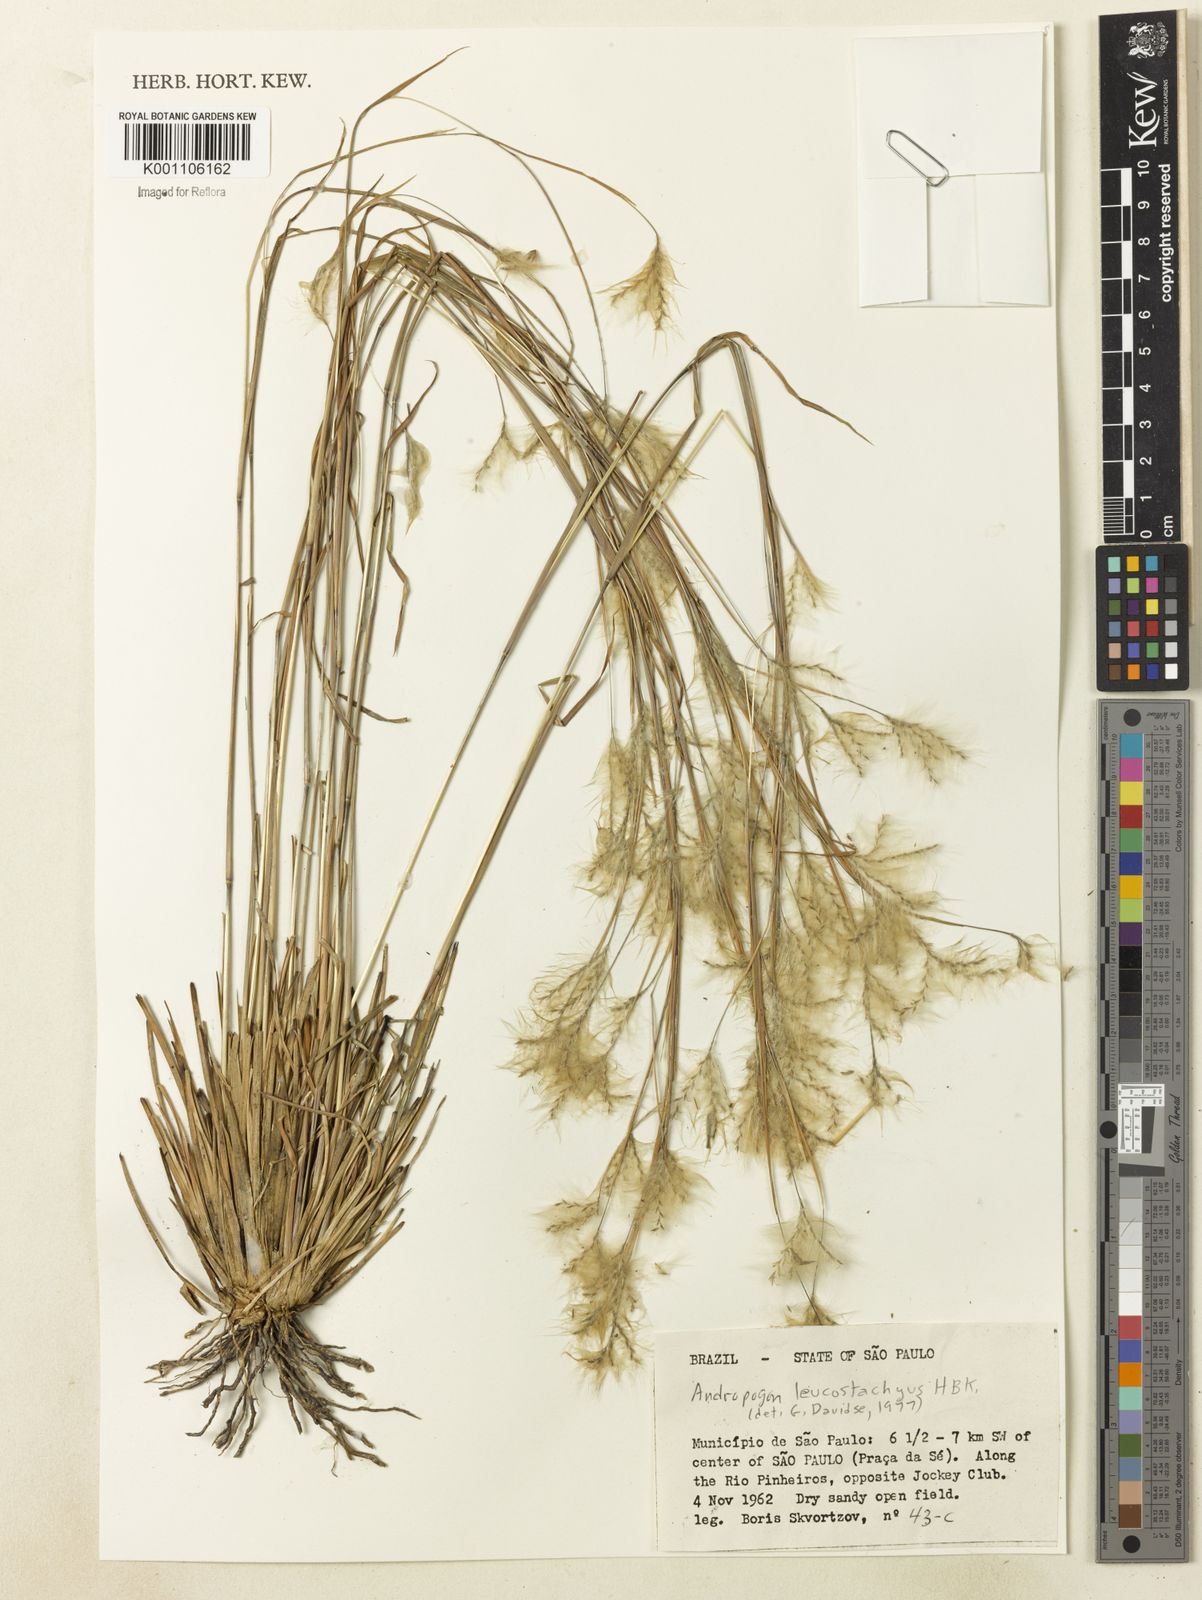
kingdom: Plantae
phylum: Tracheophyta
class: Liliopsida
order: Poales
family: Poaceae
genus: Andropogon
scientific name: Andropogon leucostachyus
